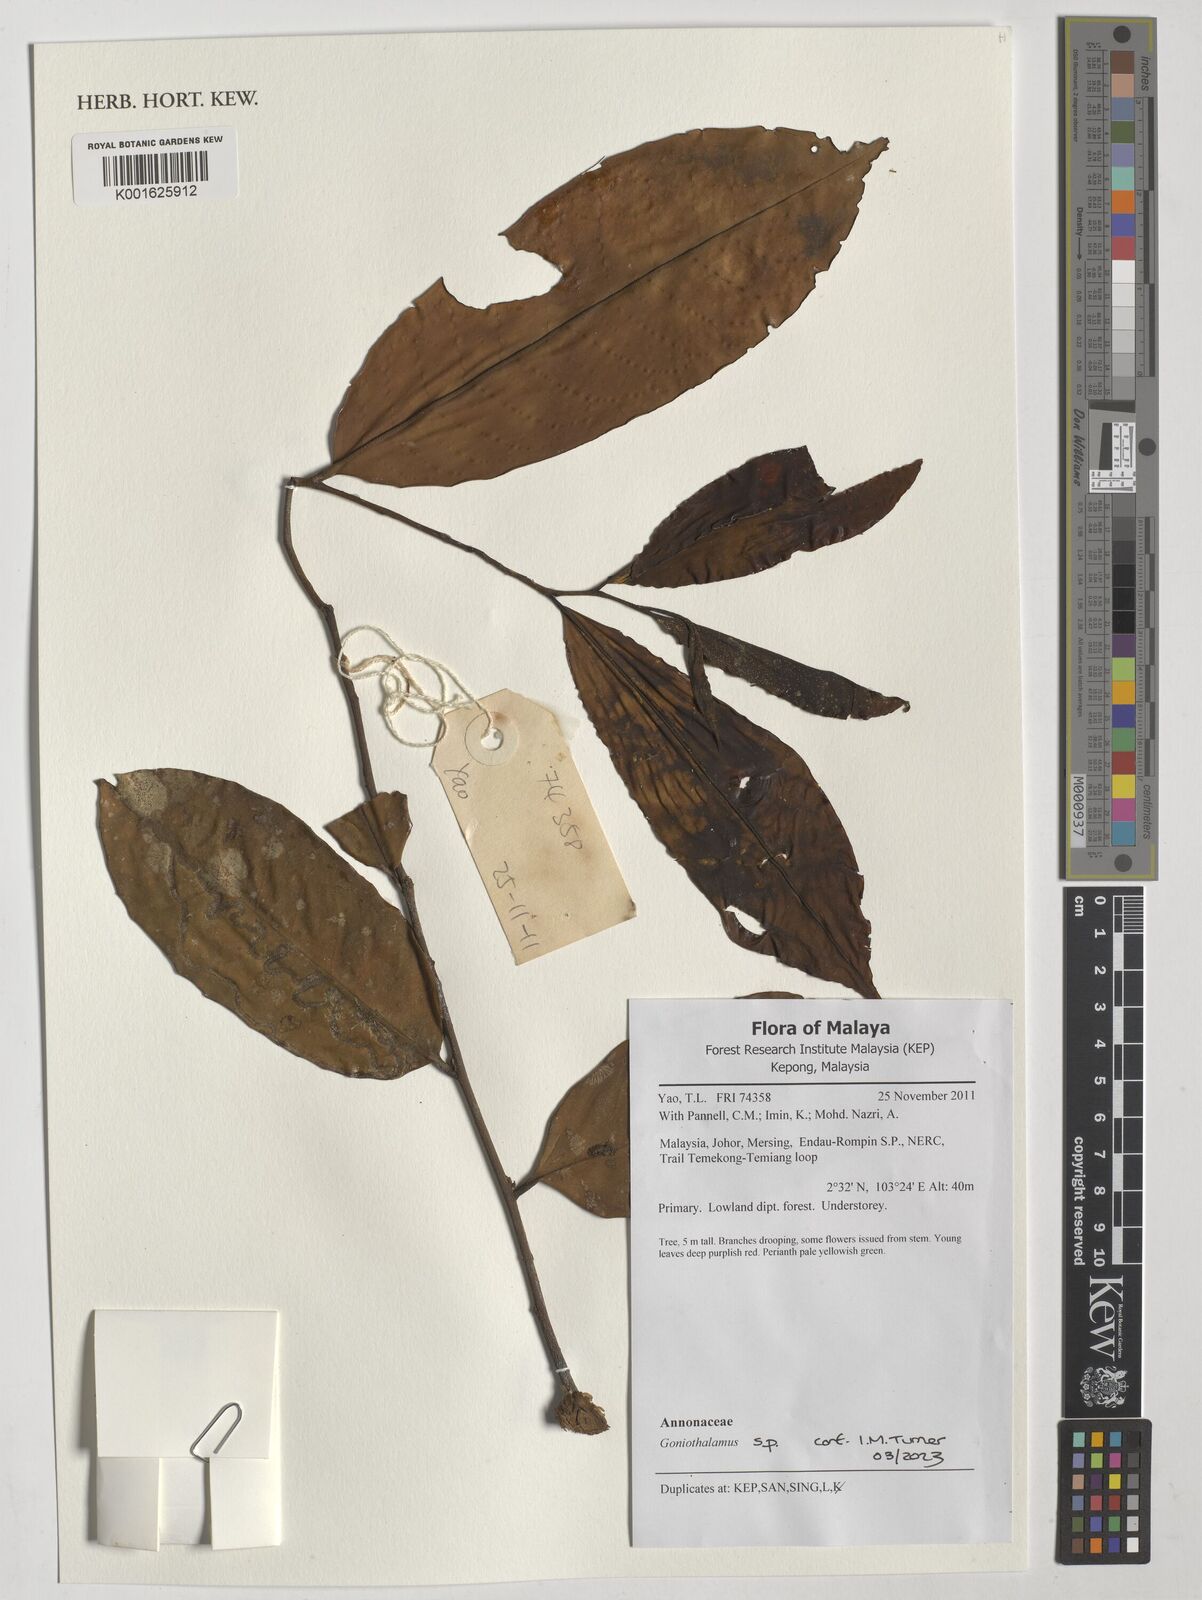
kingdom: Plantae
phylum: Tracheophyta
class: Magnoliopsida
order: Magnoliales
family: Annonaceae
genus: Goniothalamus
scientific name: Goniothalamus
